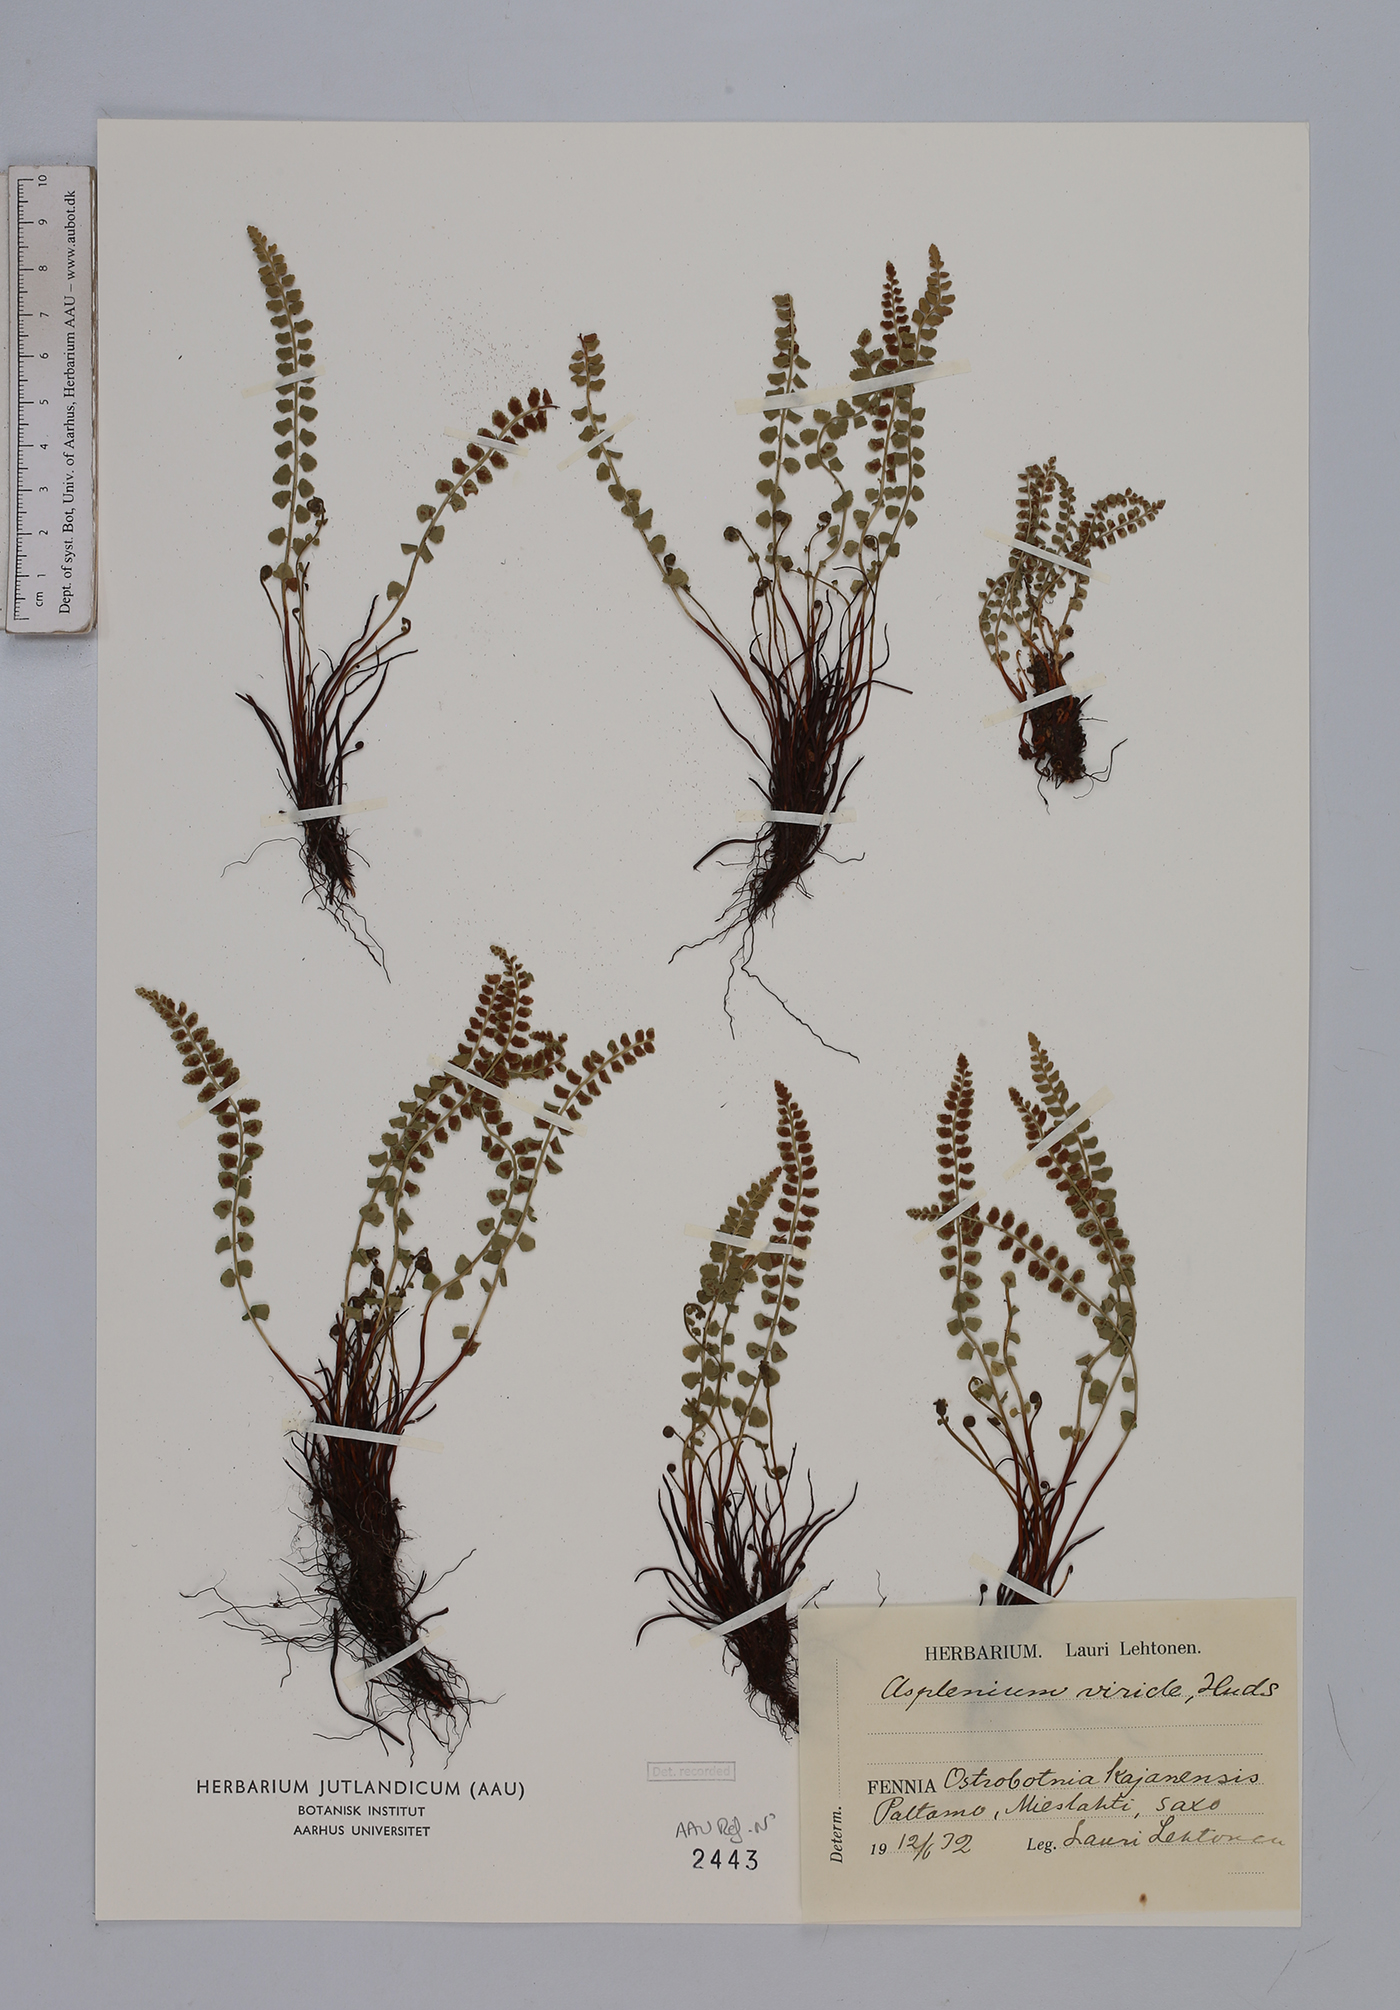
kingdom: Plantae
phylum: Tracheophyta
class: Polypodiopsida
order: Polypodiales
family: Aspleniaceae
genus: Asplenium
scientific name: Asplenium viride
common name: Green spleenwort
